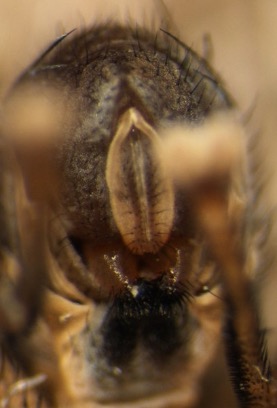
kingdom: Animalia
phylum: Arthropoda
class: Insecta
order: Diptera
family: Sciomyzidae
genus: Pherbina
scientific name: Pherbina coryleti
